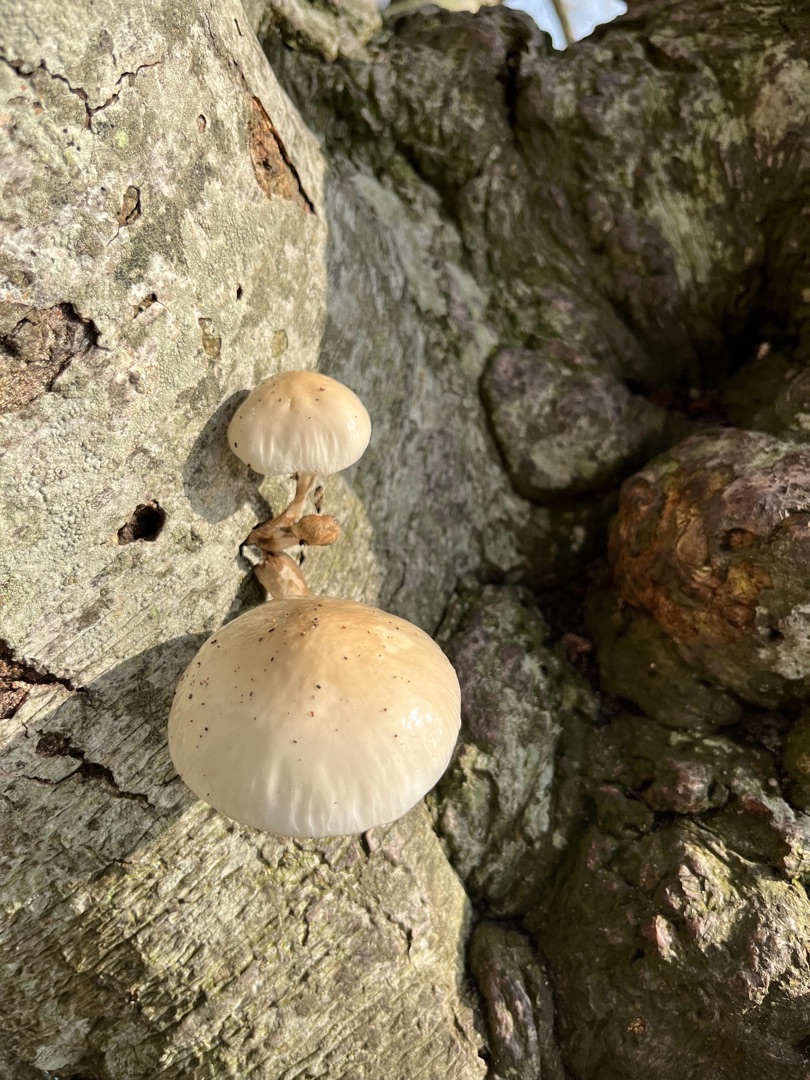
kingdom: Fungi
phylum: Basidiomycota
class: Agaricomycetes
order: Agaricales
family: Physalacriaceae
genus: Mucidula
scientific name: Mucidula mucida
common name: Porcelænshat
